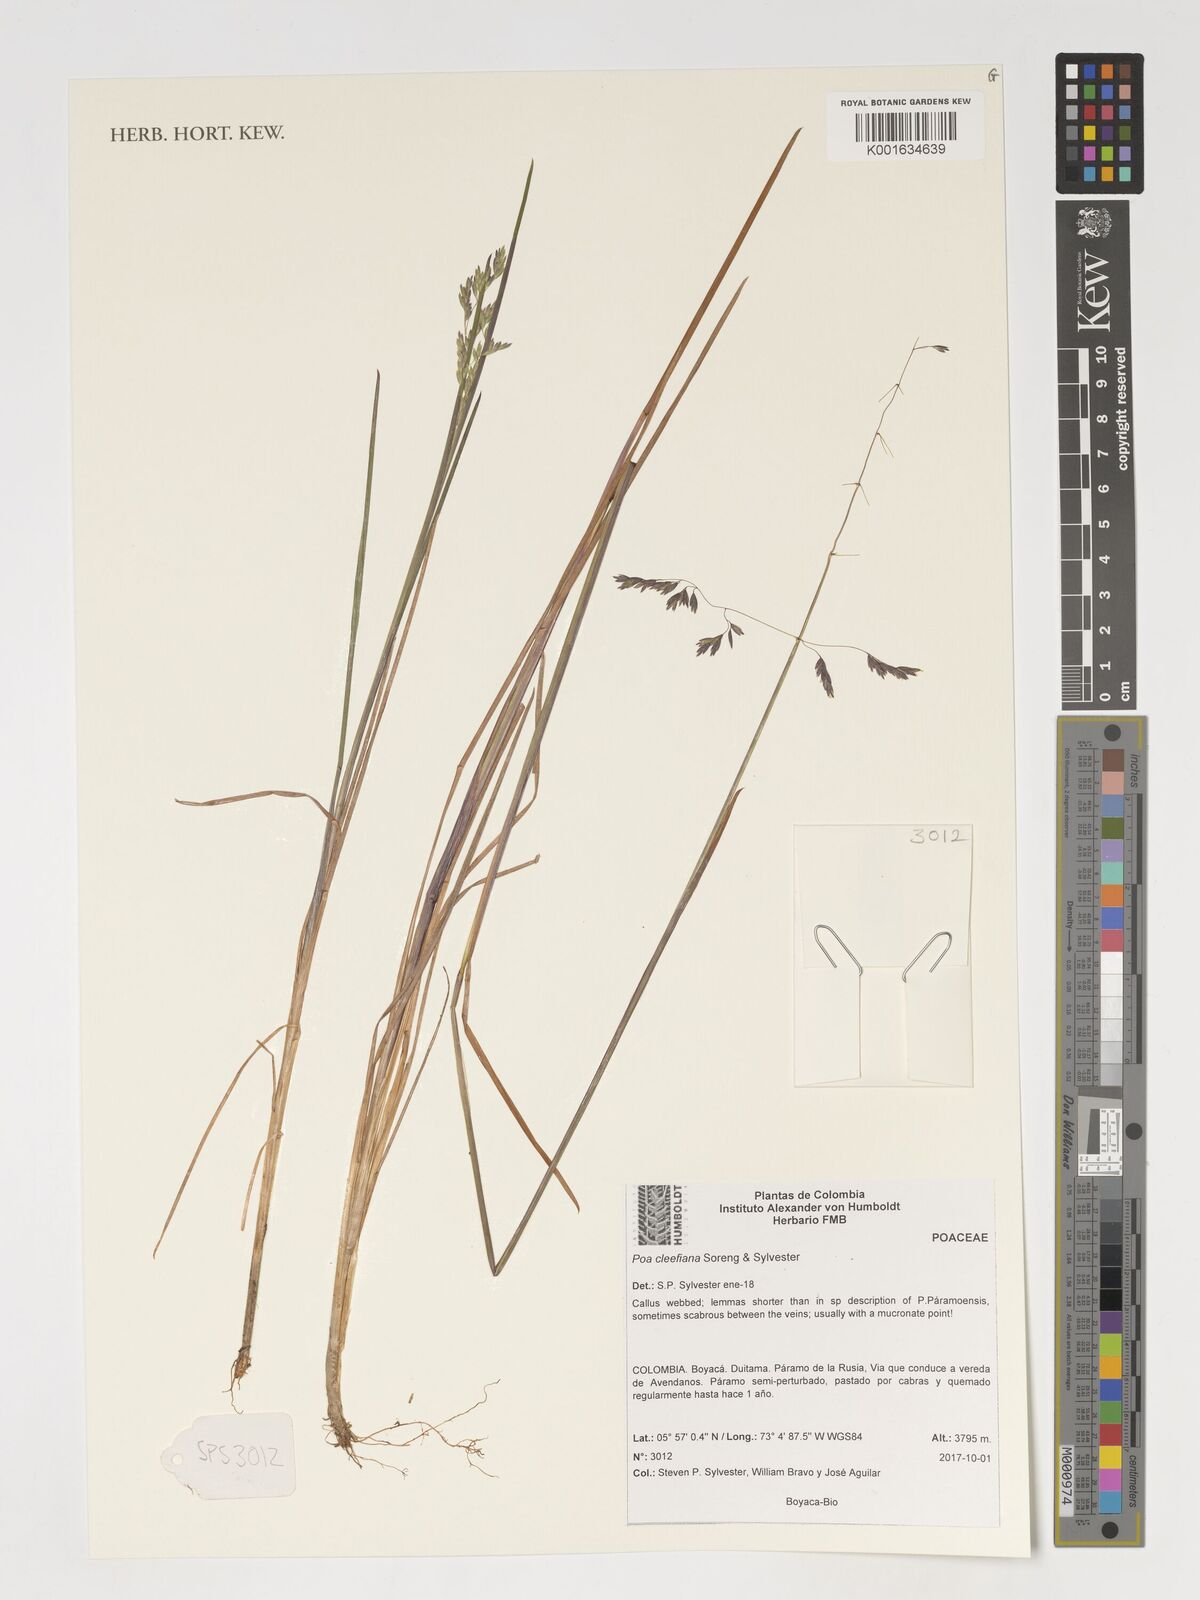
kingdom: Plantae
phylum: Tracheophyta
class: Liliopsida
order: Poales
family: Poaceae
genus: Poa
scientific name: Poa
